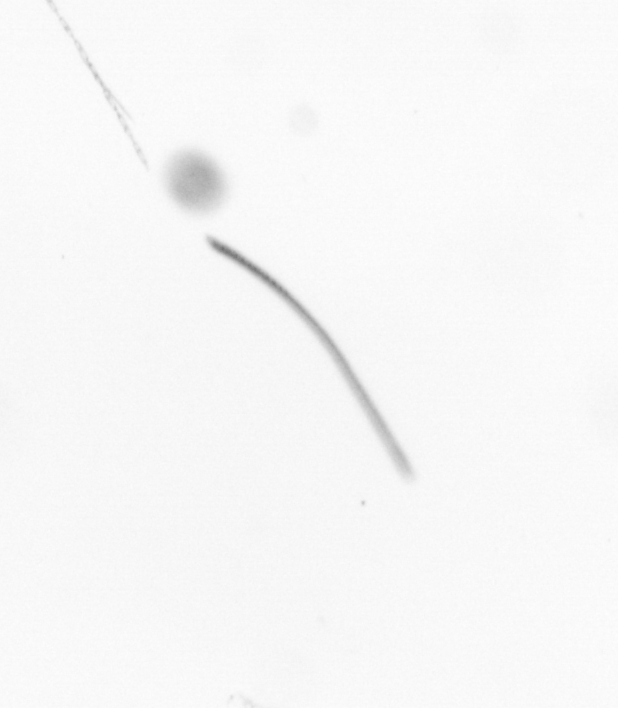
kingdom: Chromista
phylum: Ochrophyta
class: Bacillariophyceae
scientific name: Bacillariophyceae
